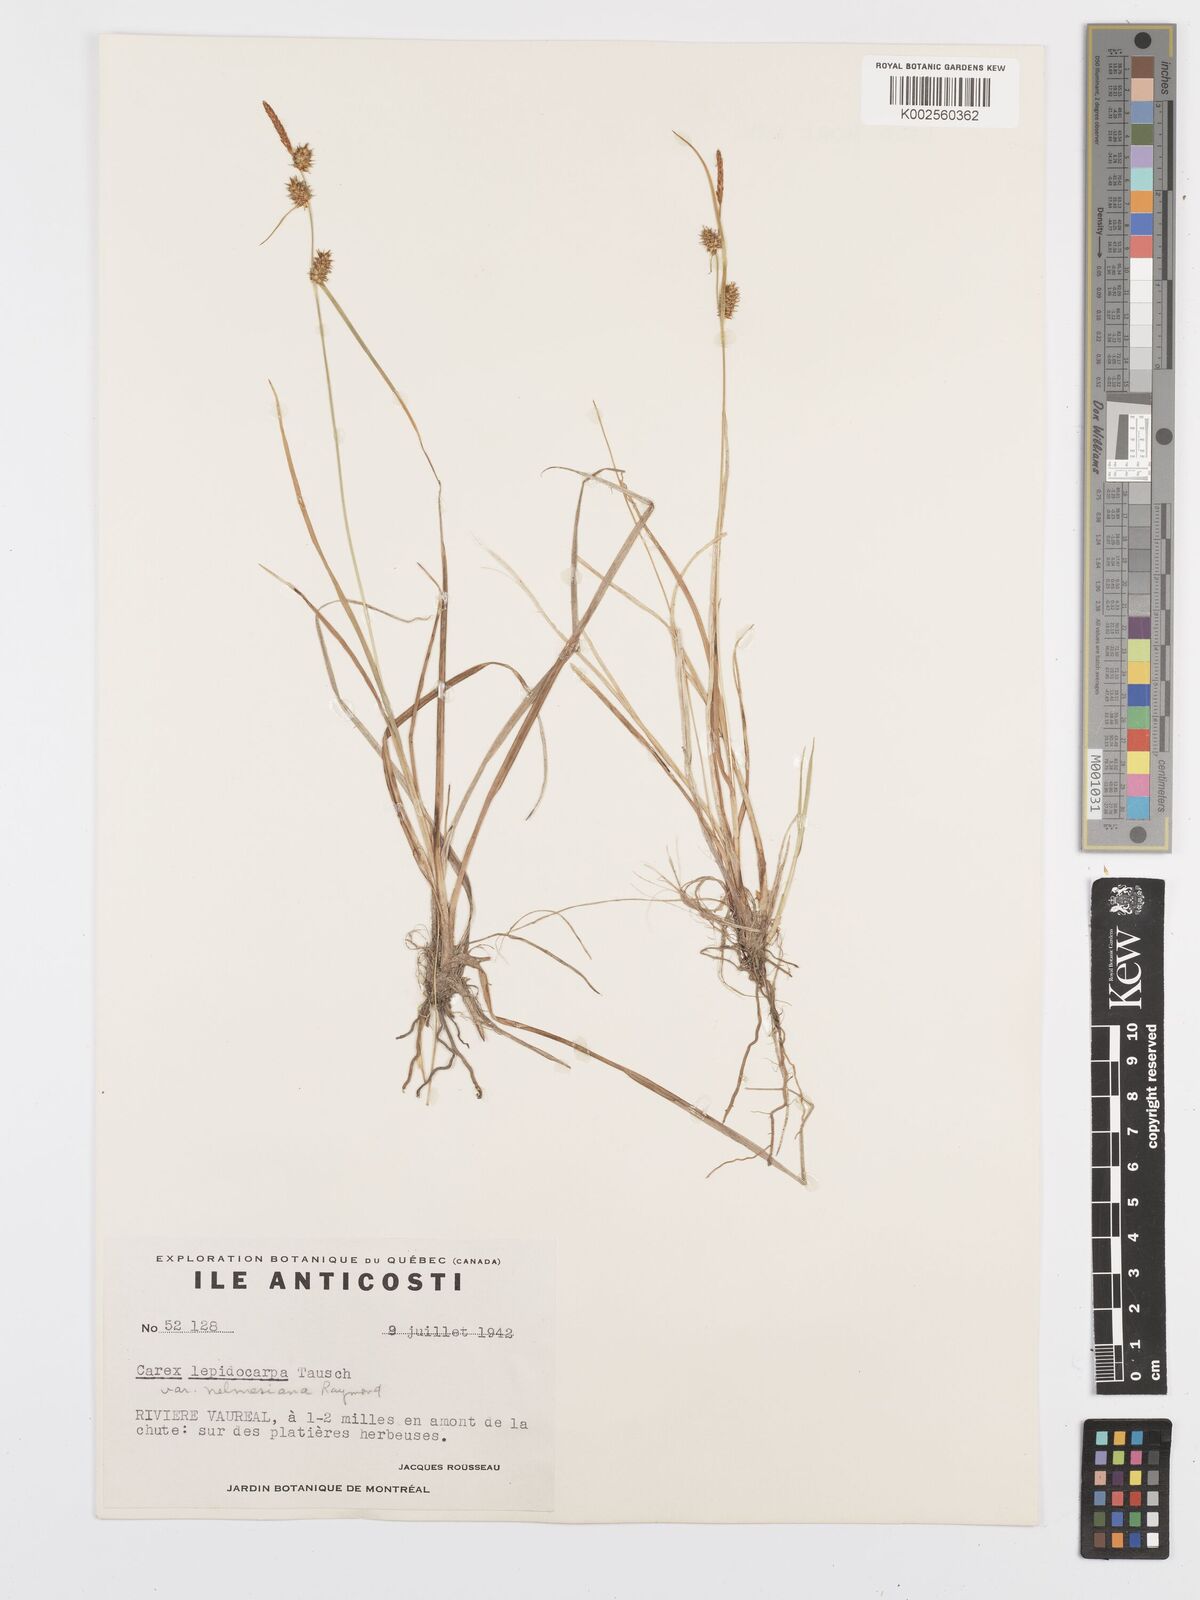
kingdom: Plantae
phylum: Tracheophyta
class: Liliopsida
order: Poales
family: Cyperaceae
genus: Carex
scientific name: Carex lepidocarpa
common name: Long-stalked yellow-sedge
